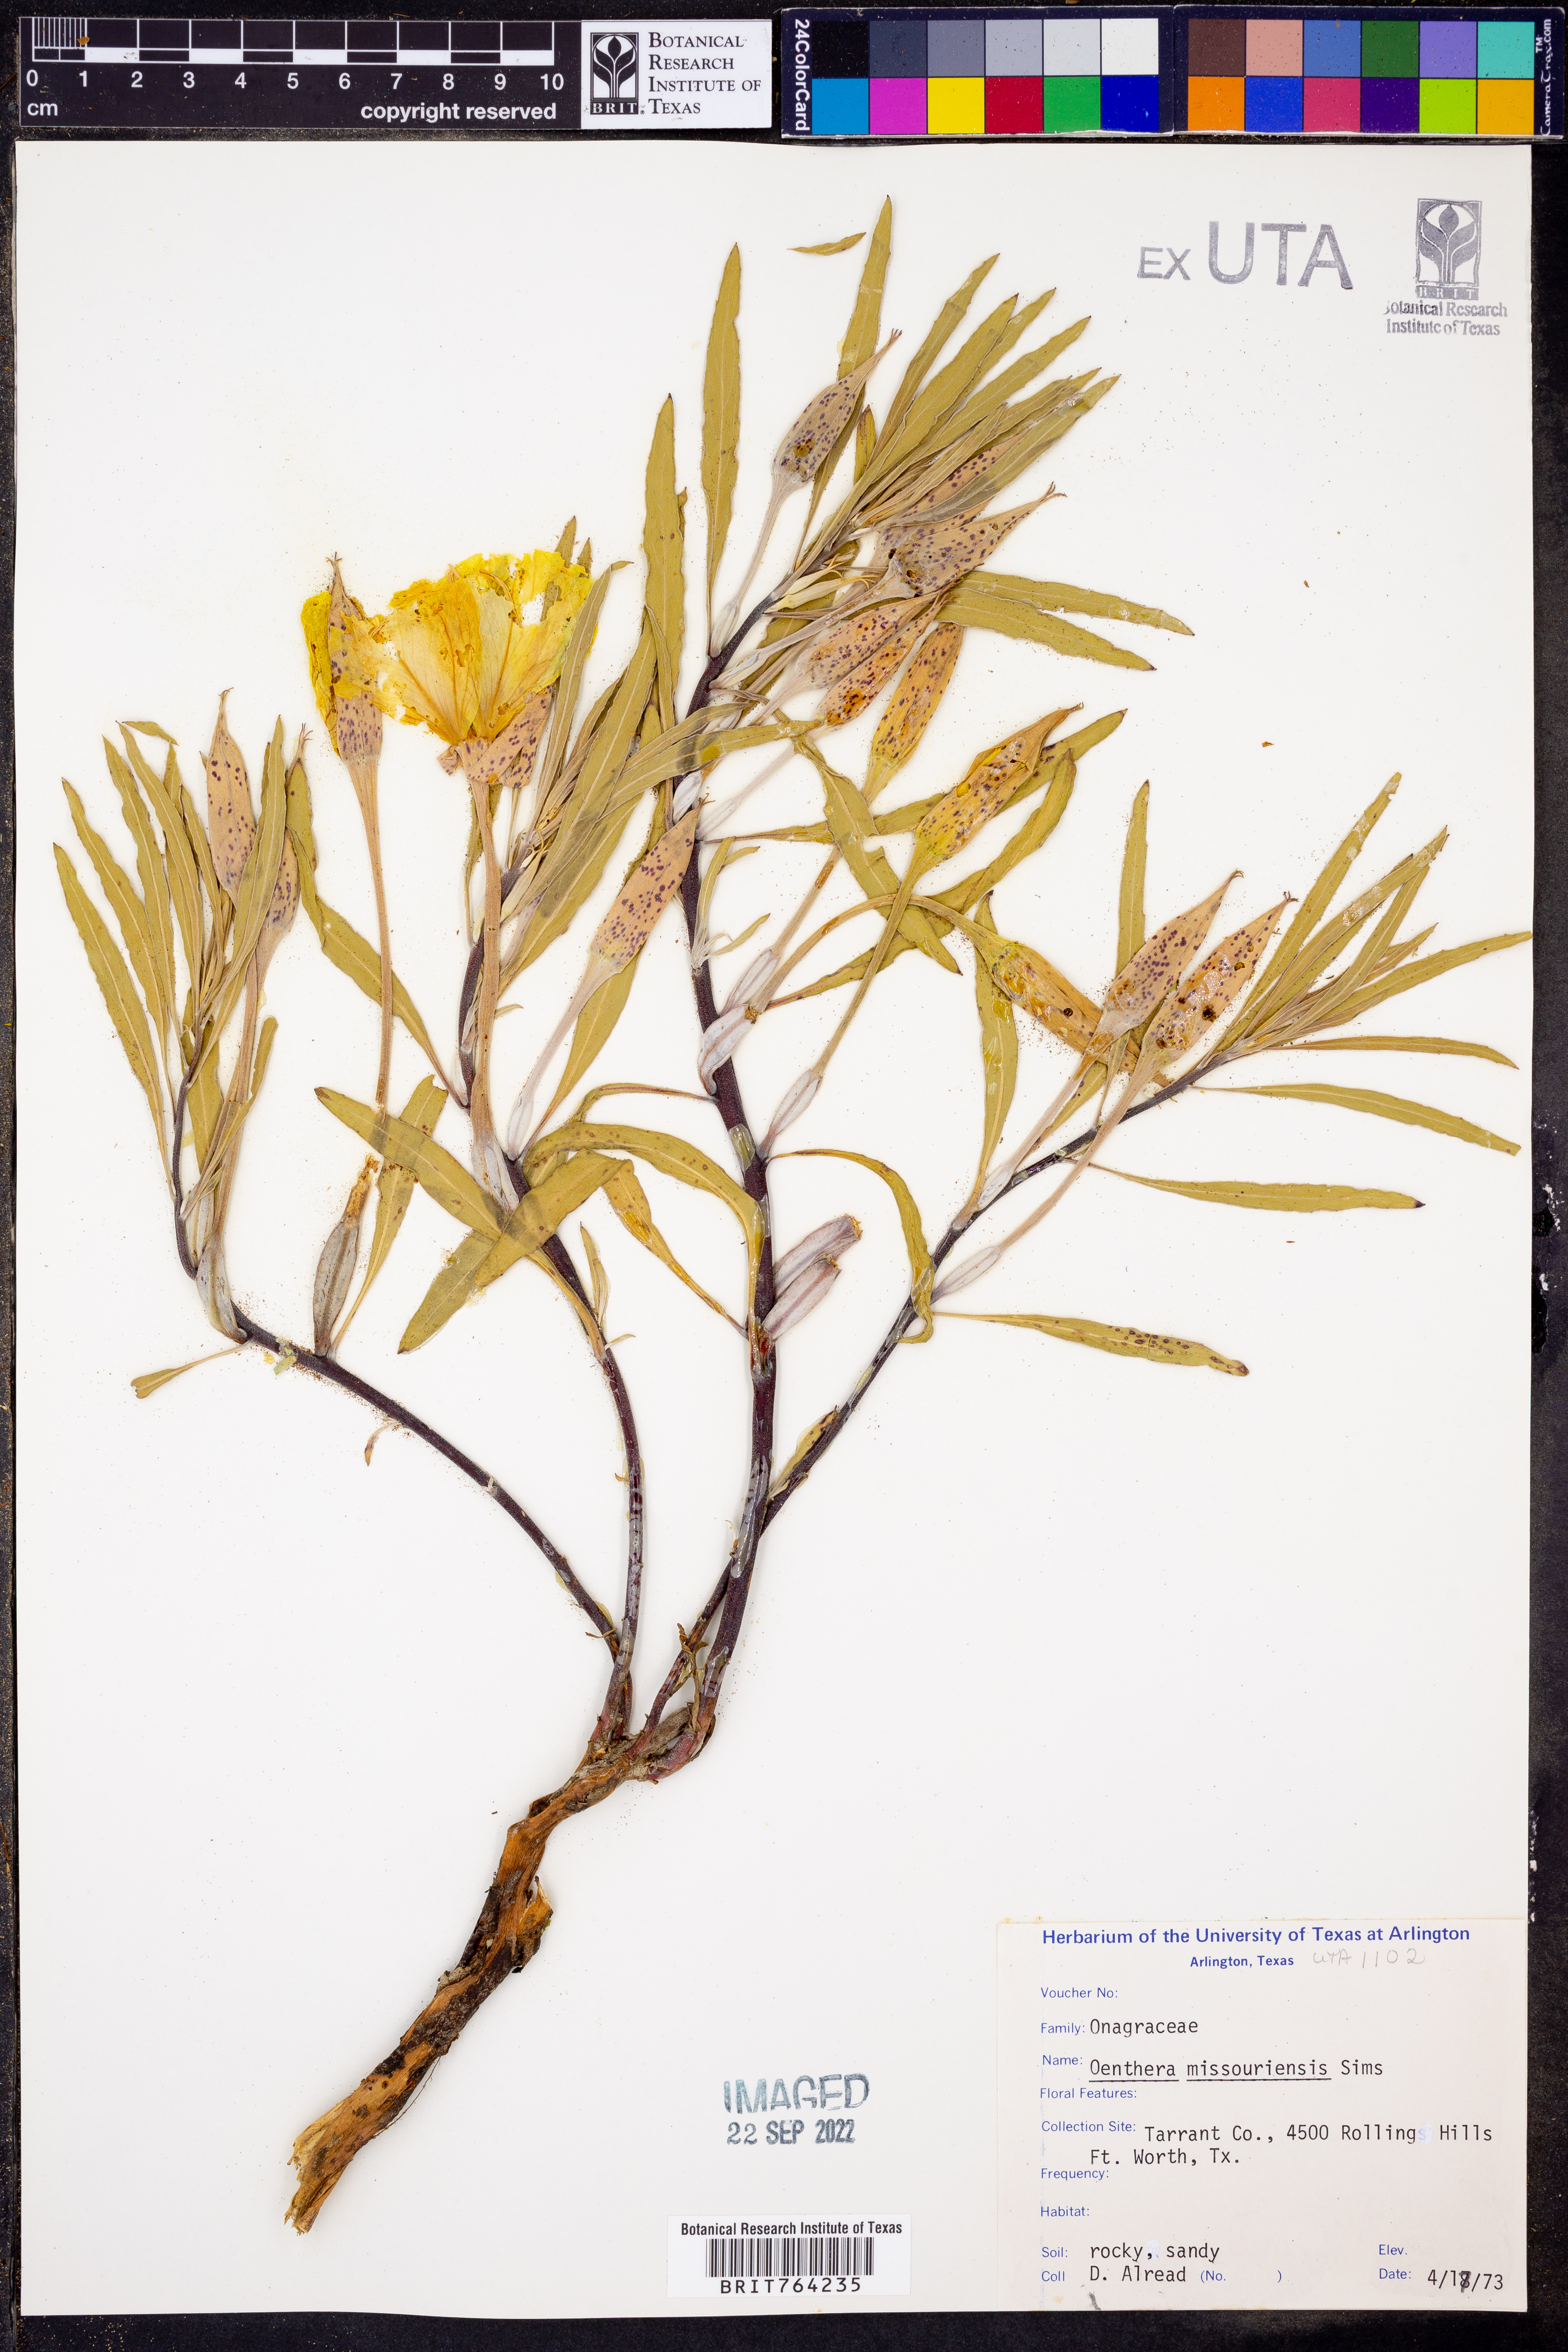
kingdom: Plantae
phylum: Tracheophyta
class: Magnoliopsida
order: Myrtales
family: Onagraceae
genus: Oenothera
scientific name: Oenothera macrocarpa
